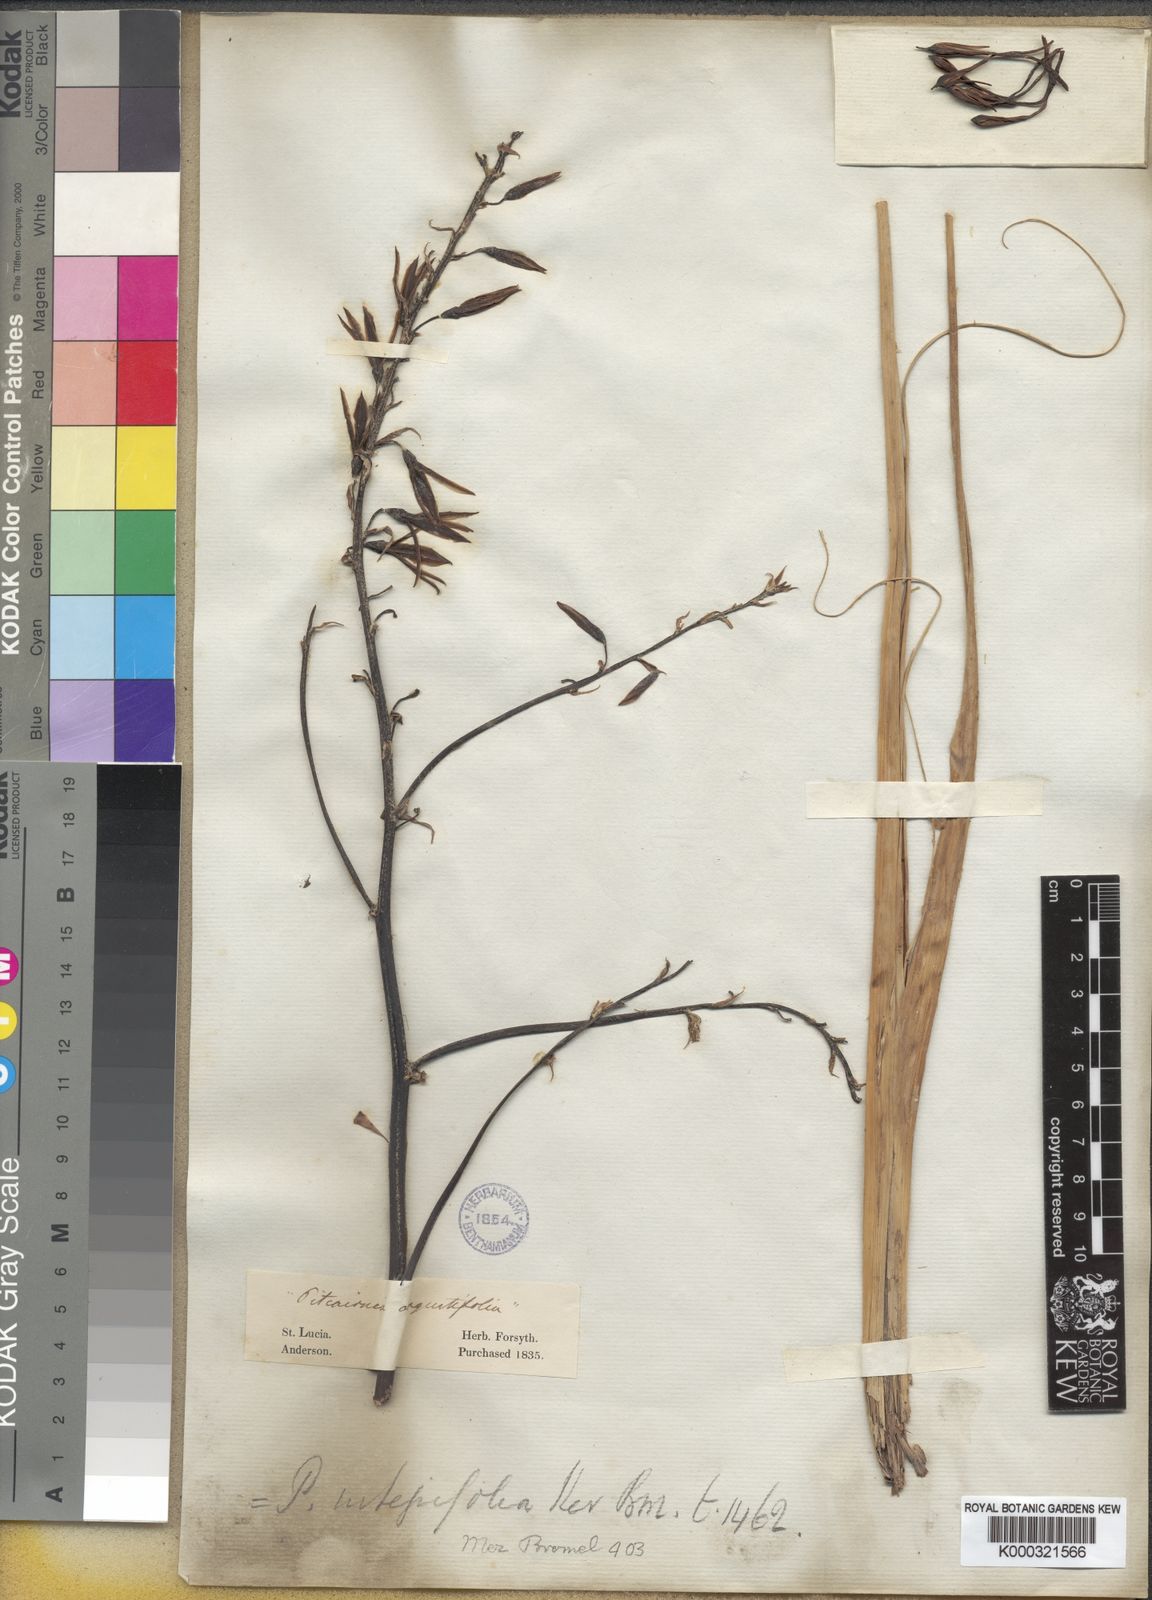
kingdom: Plantae
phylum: Tracheophyta
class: Liliopsida
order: Poales
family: Bromeliaceae
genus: Pitcairnia
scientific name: Pitcairnia
